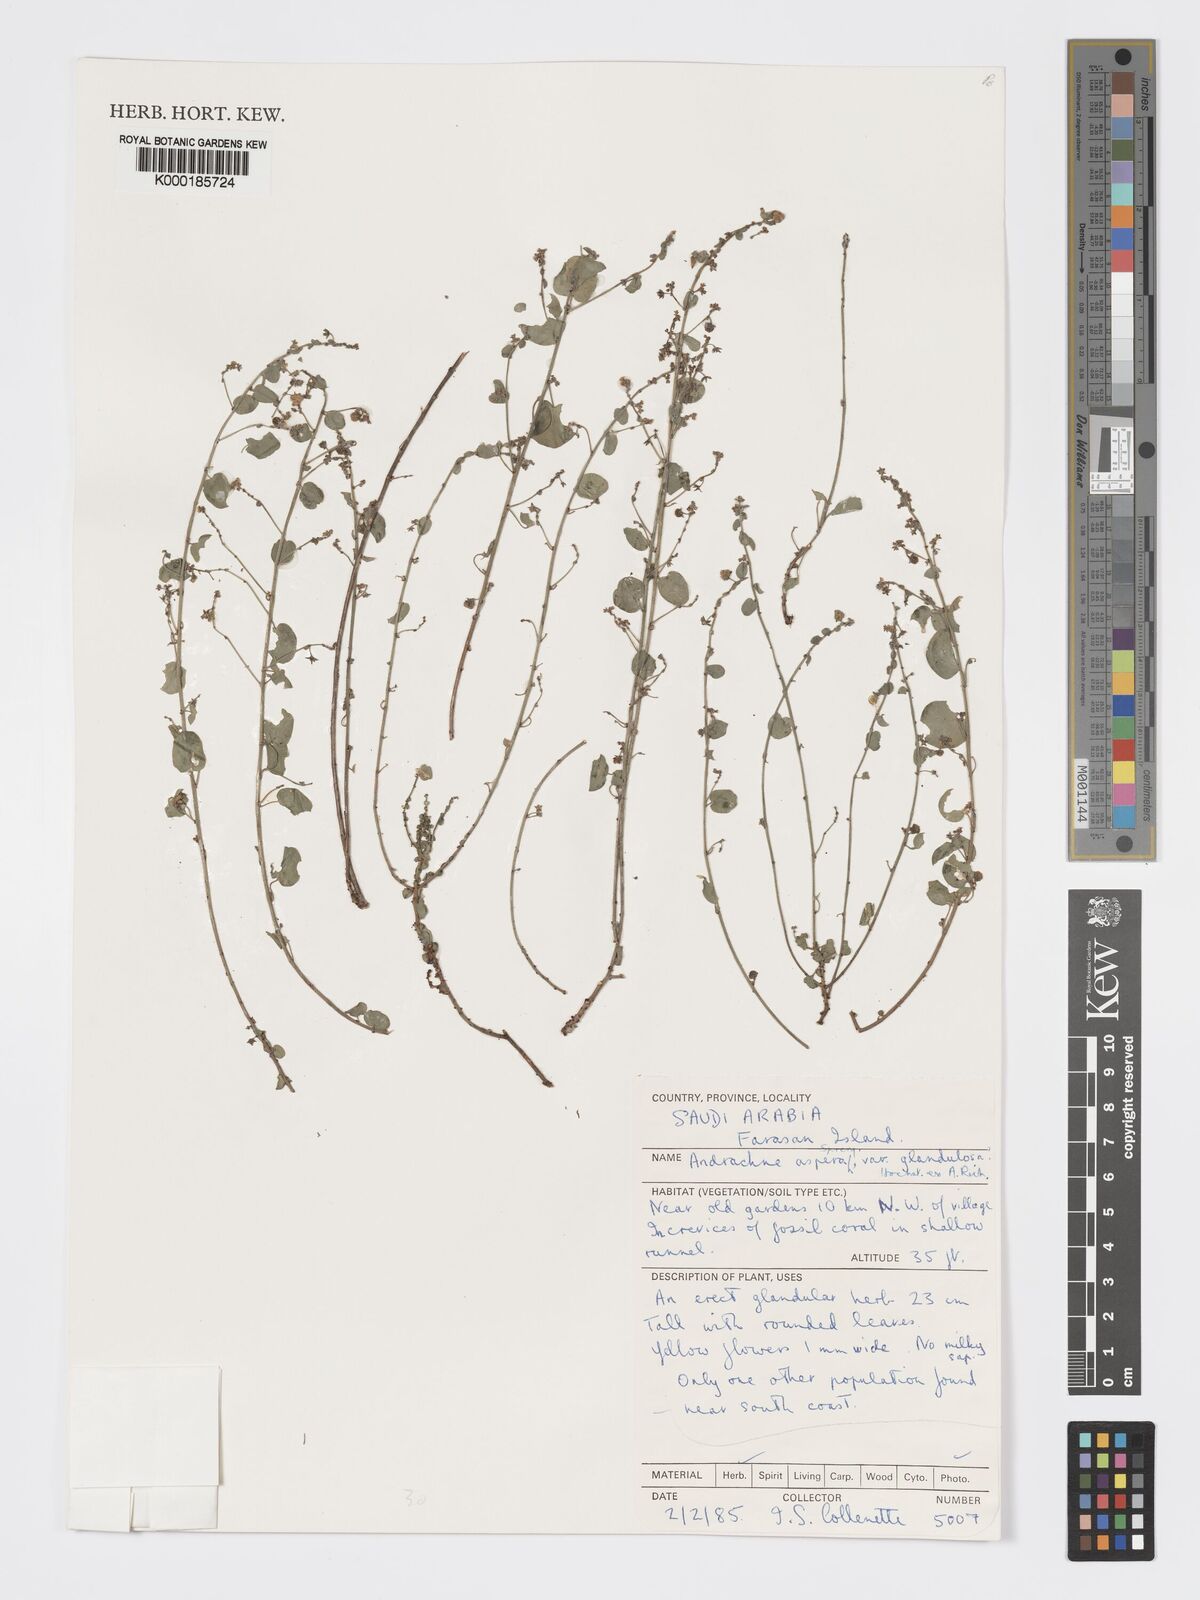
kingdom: Plantae
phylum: Tracheophyta
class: Magnoliopsida
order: Malpighiales
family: Phyllanthaceae
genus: Andrachne
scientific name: Andrachne aspera
